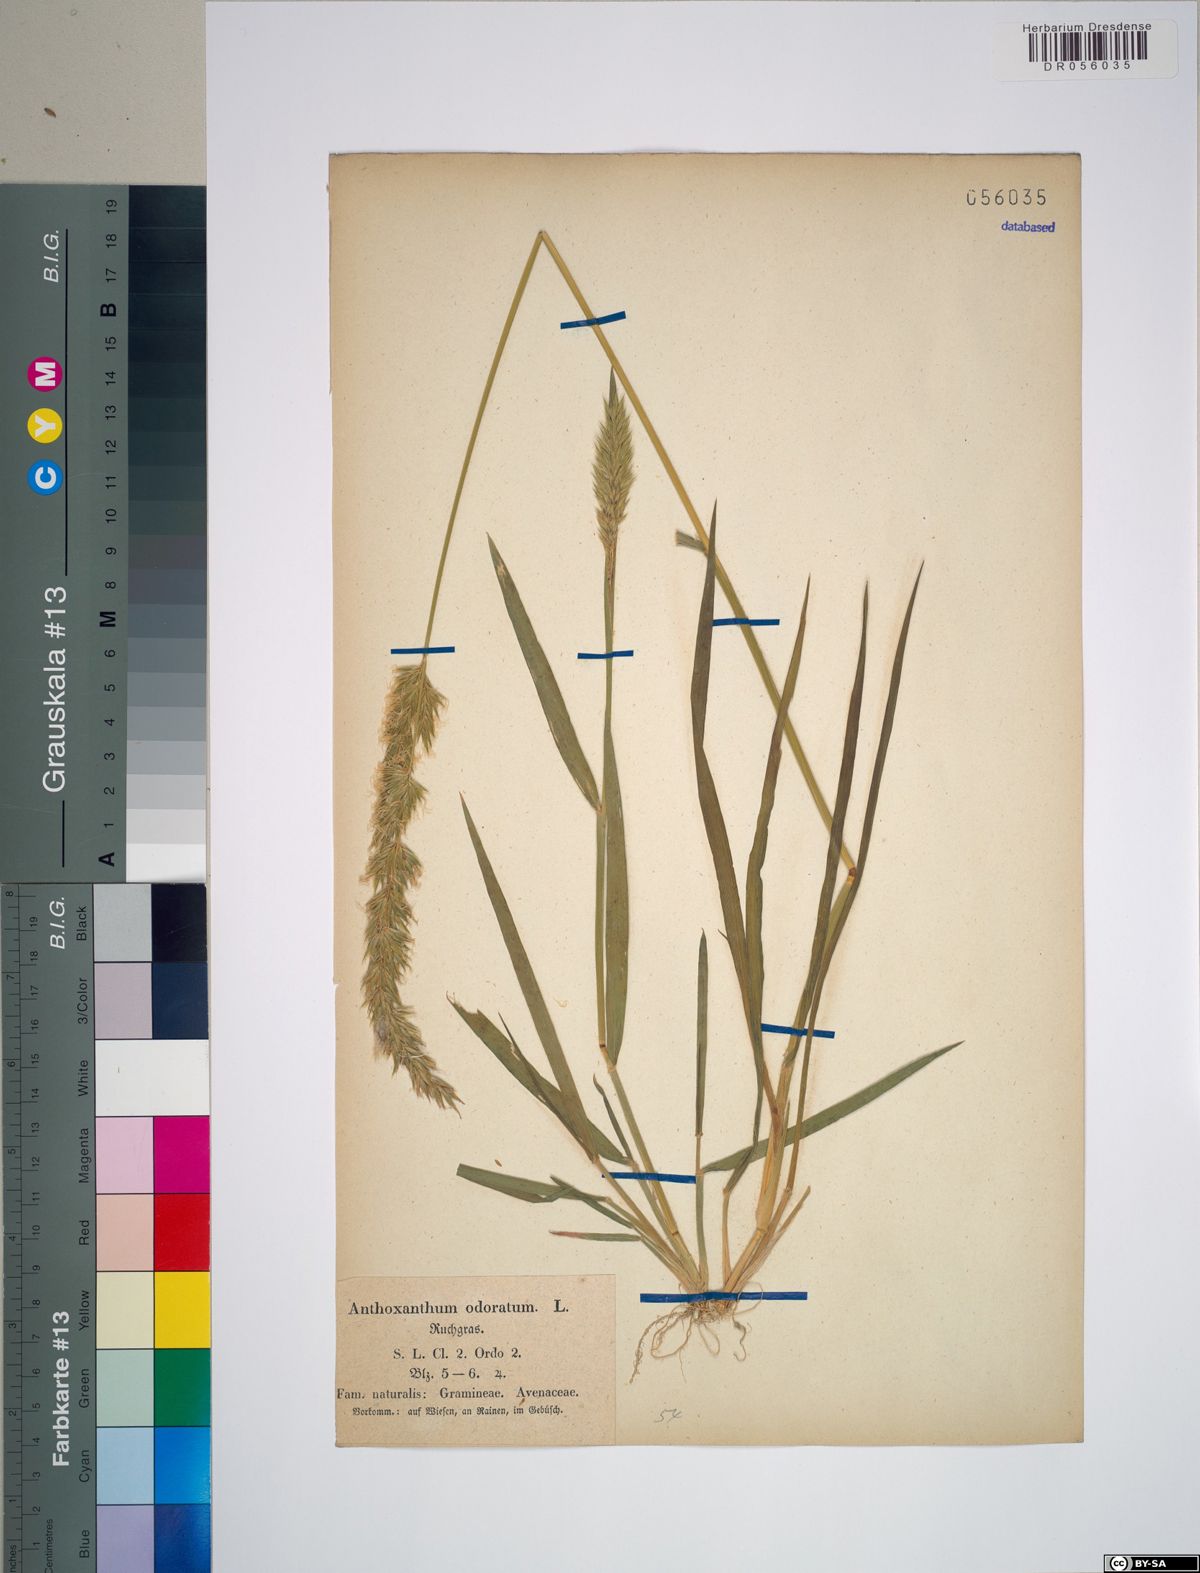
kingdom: Plantae
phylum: Tracheophyta
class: Liliopsida
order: Poales
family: Poaceae
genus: Anthoxanthum
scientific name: Anthoxanthum odoratum
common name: Sweet vernalgrass
